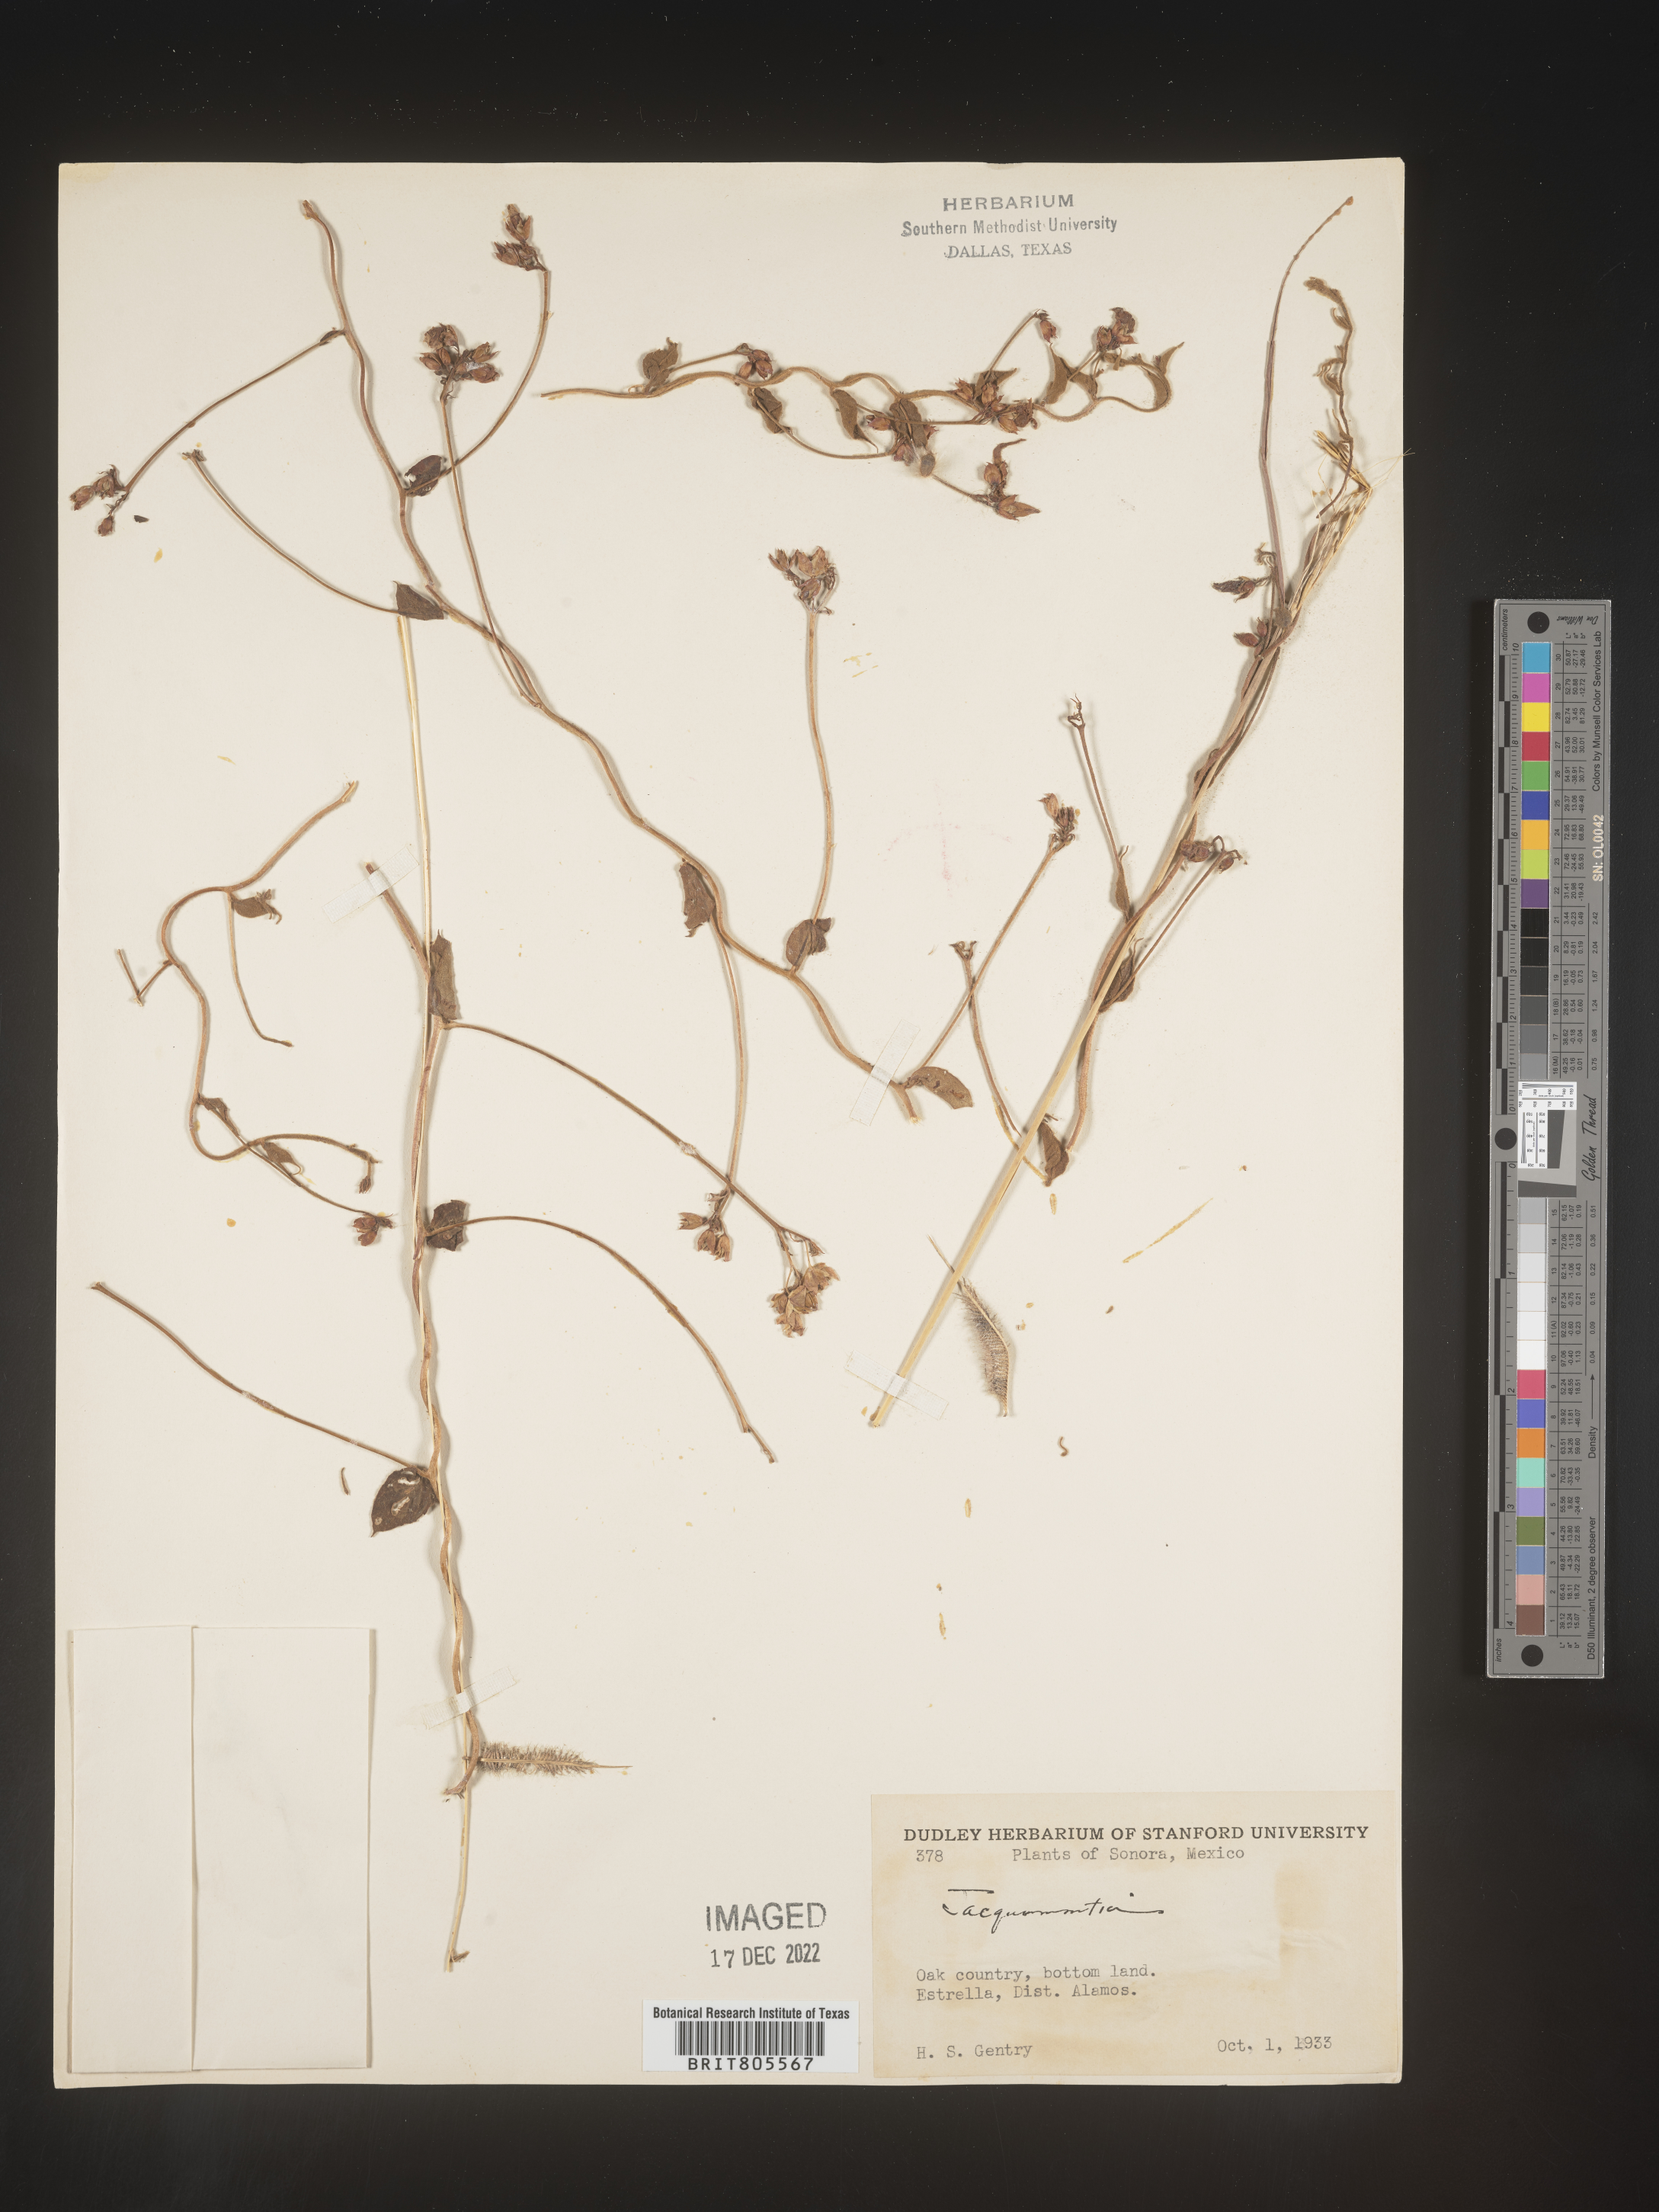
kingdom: Plantae
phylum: Tracheophyta
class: Magnoliopsida
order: Solanales
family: Convolvulaceae
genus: Jacquemontia
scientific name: Jacquemontia
